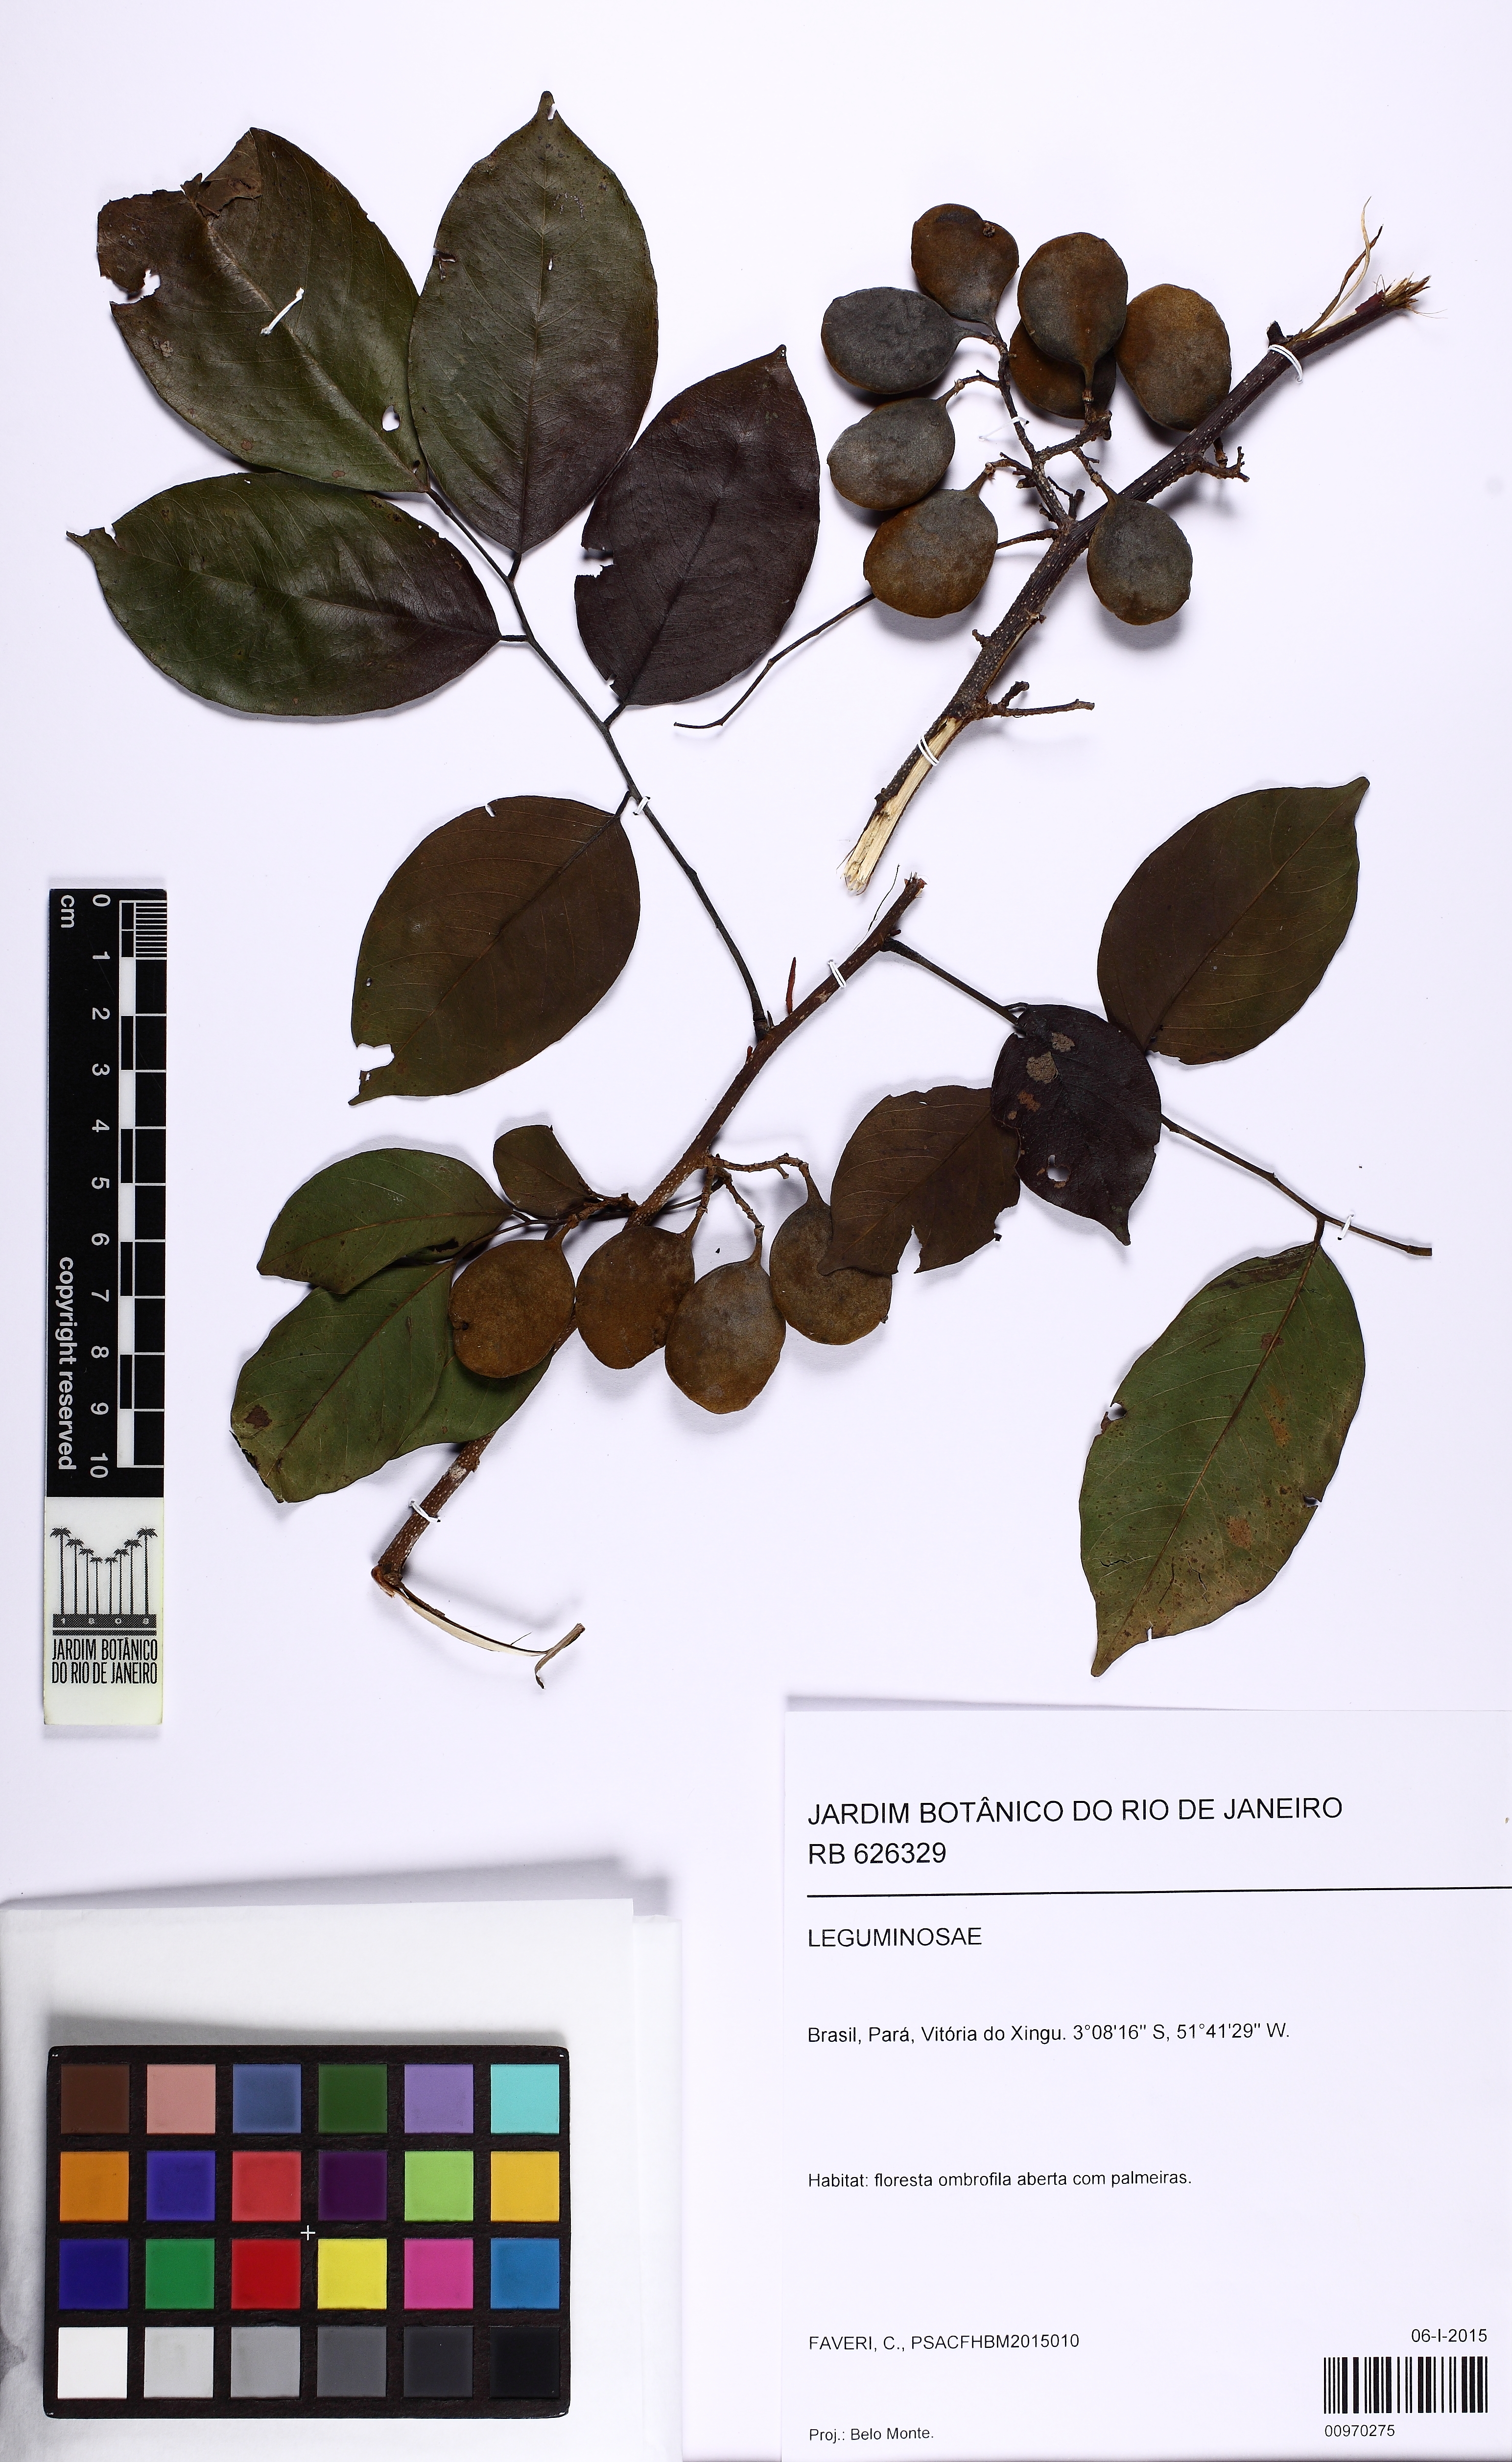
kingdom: Plantae
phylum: Tracheophyta
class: Magnoliopsida
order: Fabales
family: Fabaceae
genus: Dalbergia
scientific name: Dalbergia
